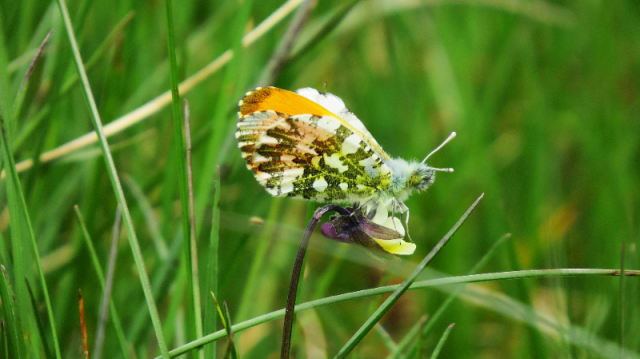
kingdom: Animalia
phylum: Arthropoda
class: Insecta
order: Lepidoptera
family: Pieridae
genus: Anthocharis
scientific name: Anthocharis cardamines
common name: Orange Tip
